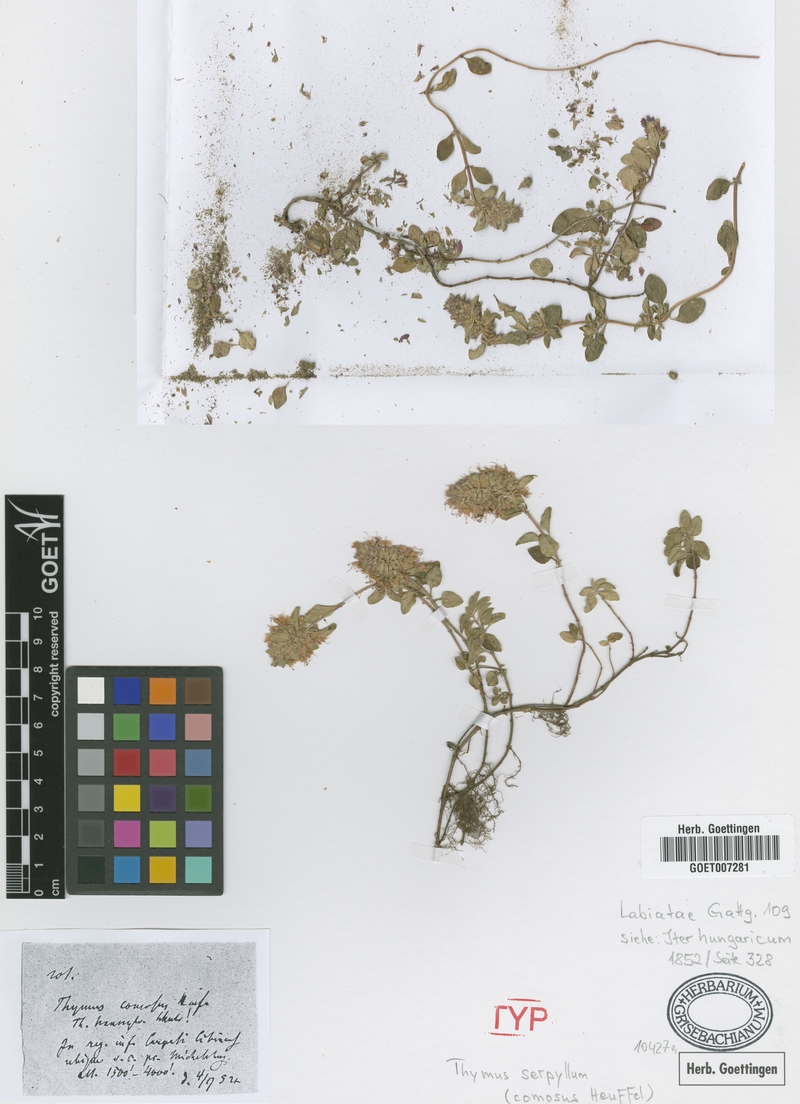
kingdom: Plantae
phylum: Tracheophyta
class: Magnoliopsida
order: Lamiales
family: Lamiaceae
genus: Thymus
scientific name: Thymus comosus
